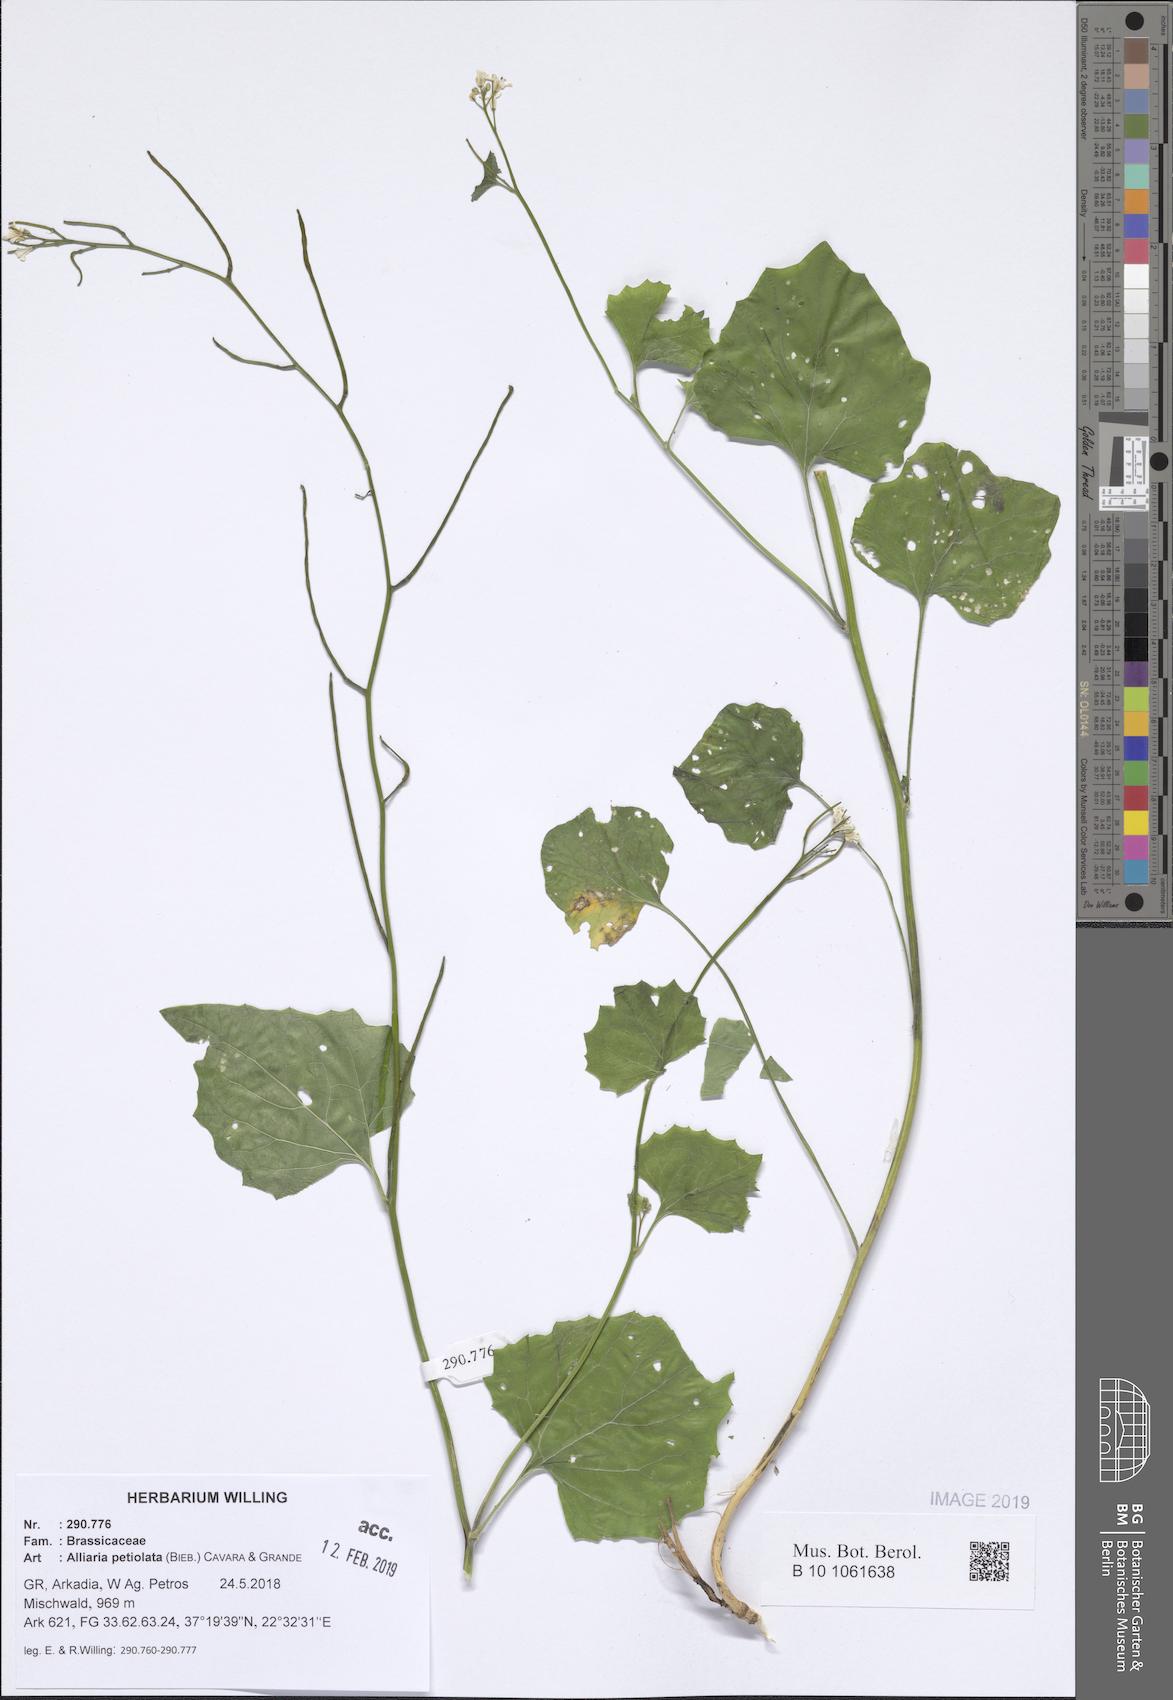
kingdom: Plantae
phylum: Tracheophyta
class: Magnoliopsida
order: Brassicales
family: Brassicaceae
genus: Alliaria
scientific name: Alliaria petiolata
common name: Garlic mustard
